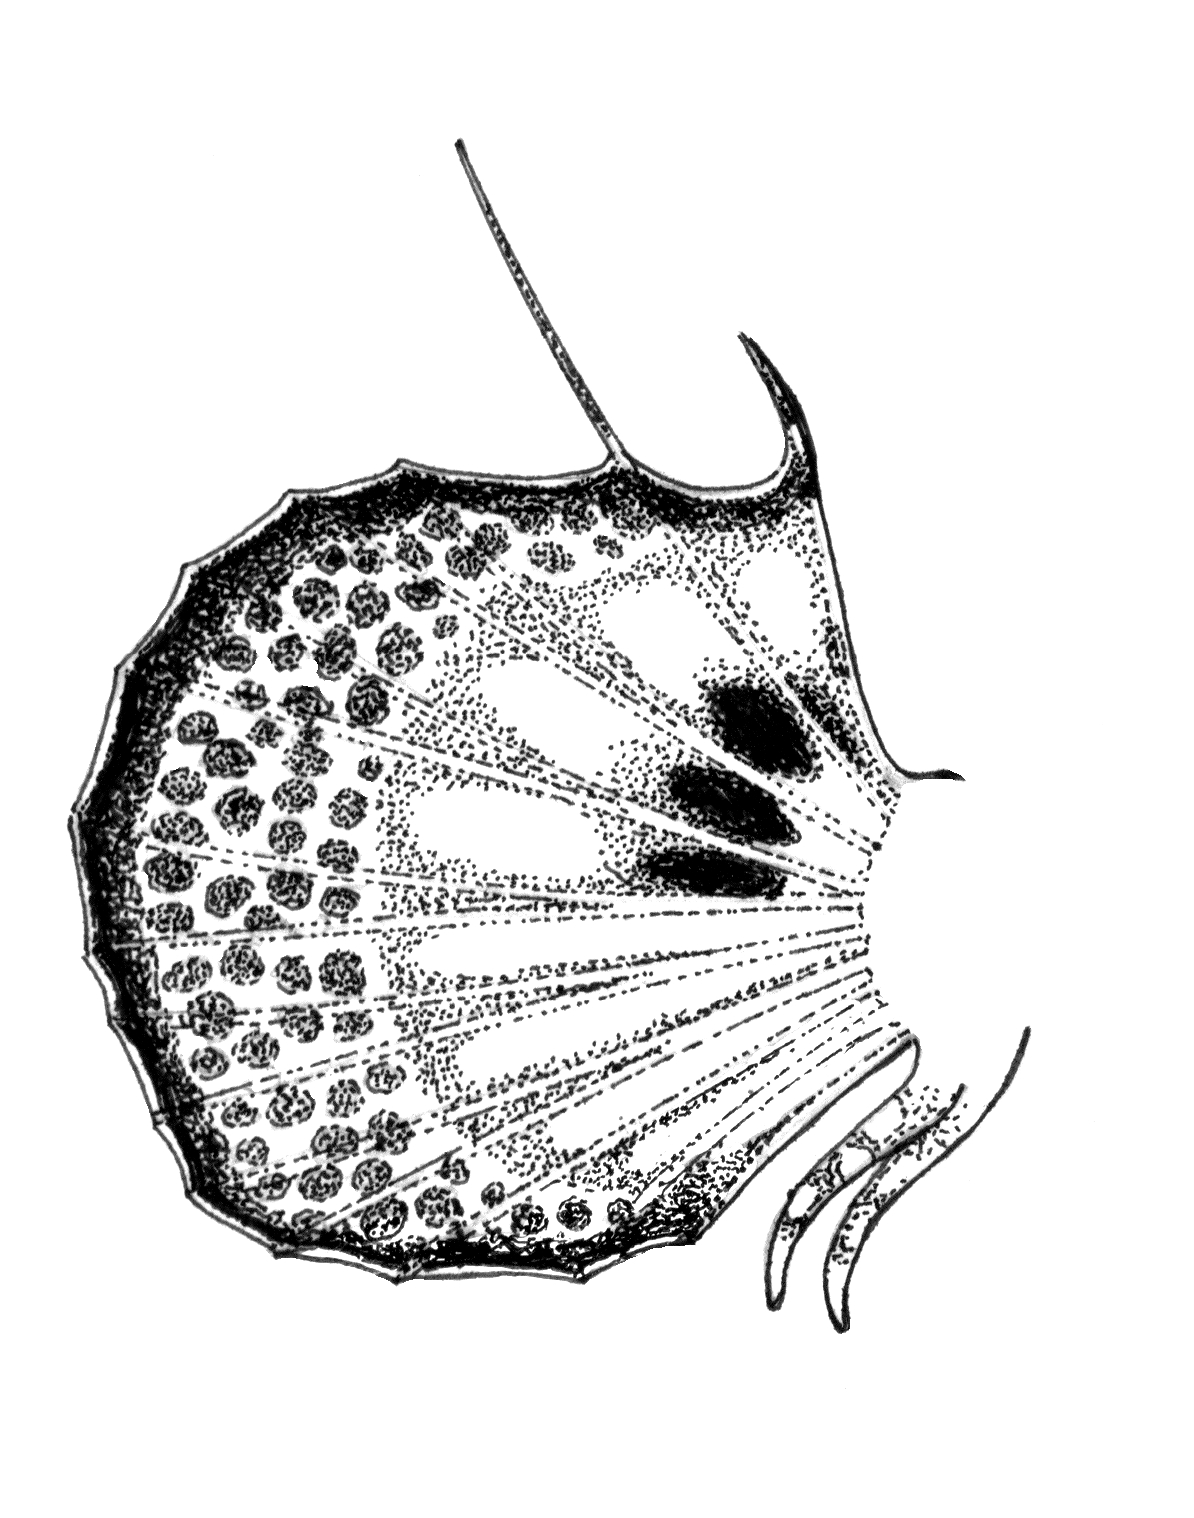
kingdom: Animalia
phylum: Chordata
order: Scorpaeniformes
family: Synanceiidae
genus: Inimicus
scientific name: Inimicus filamentosus
